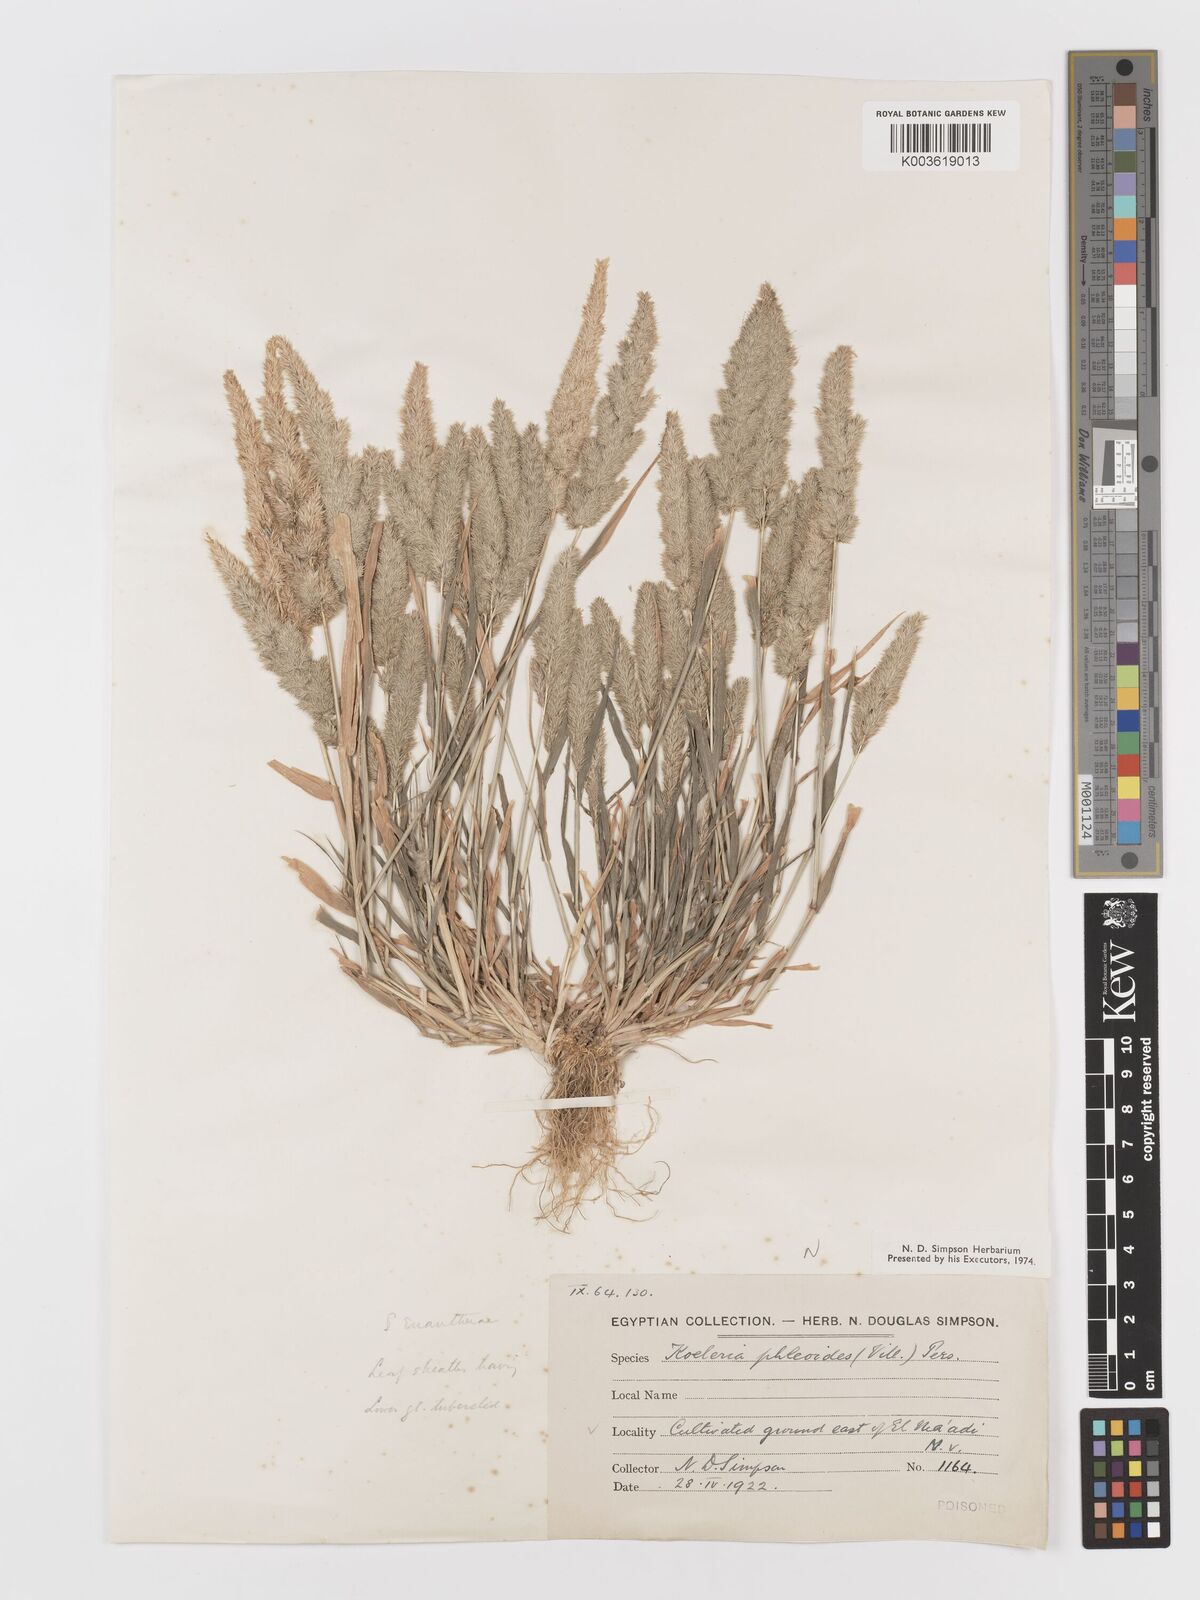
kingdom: Plantae
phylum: Tracheophyta
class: Liliopsida
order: Poales
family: Poaceae
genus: Rostraria
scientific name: Rostraria cristata
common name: Mediterranean hair-grass
